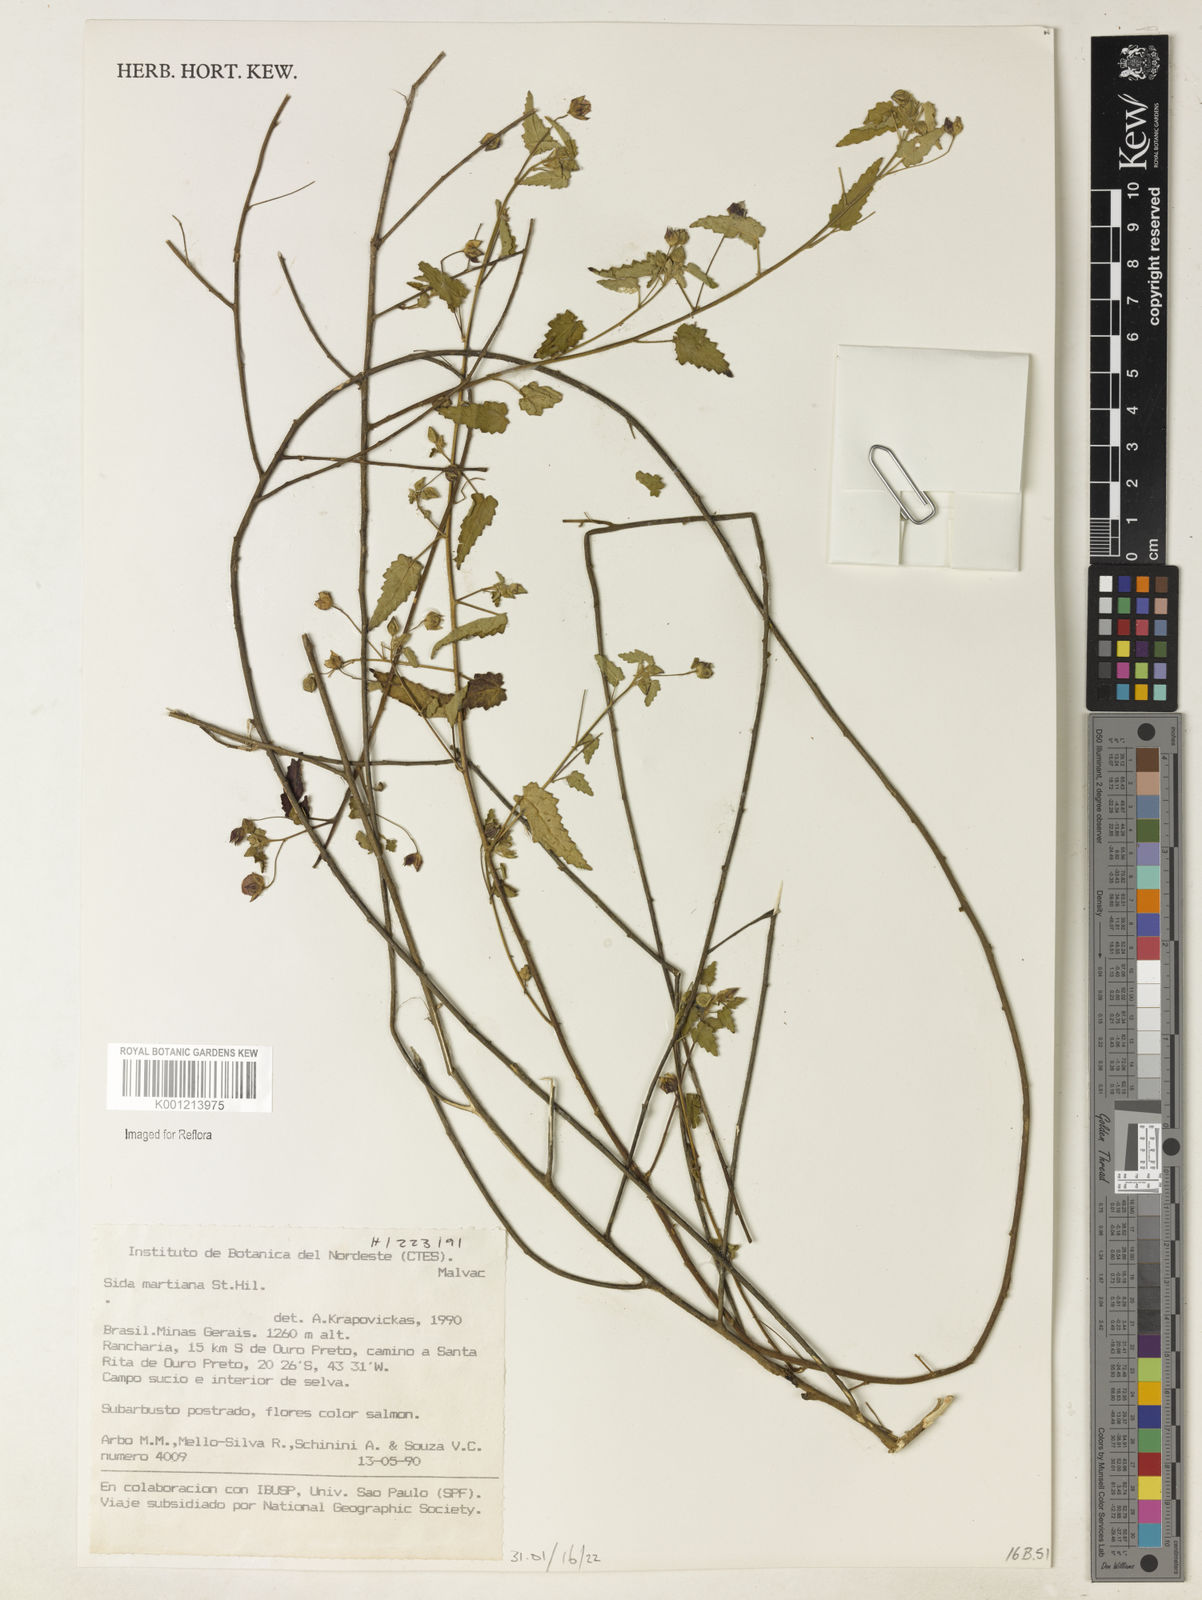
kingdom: Plantae
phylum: Tracheophyta
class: Magnoliopsida
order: Malvales
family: Malvaceae
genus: Sida
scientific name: Sida aurantiaca
